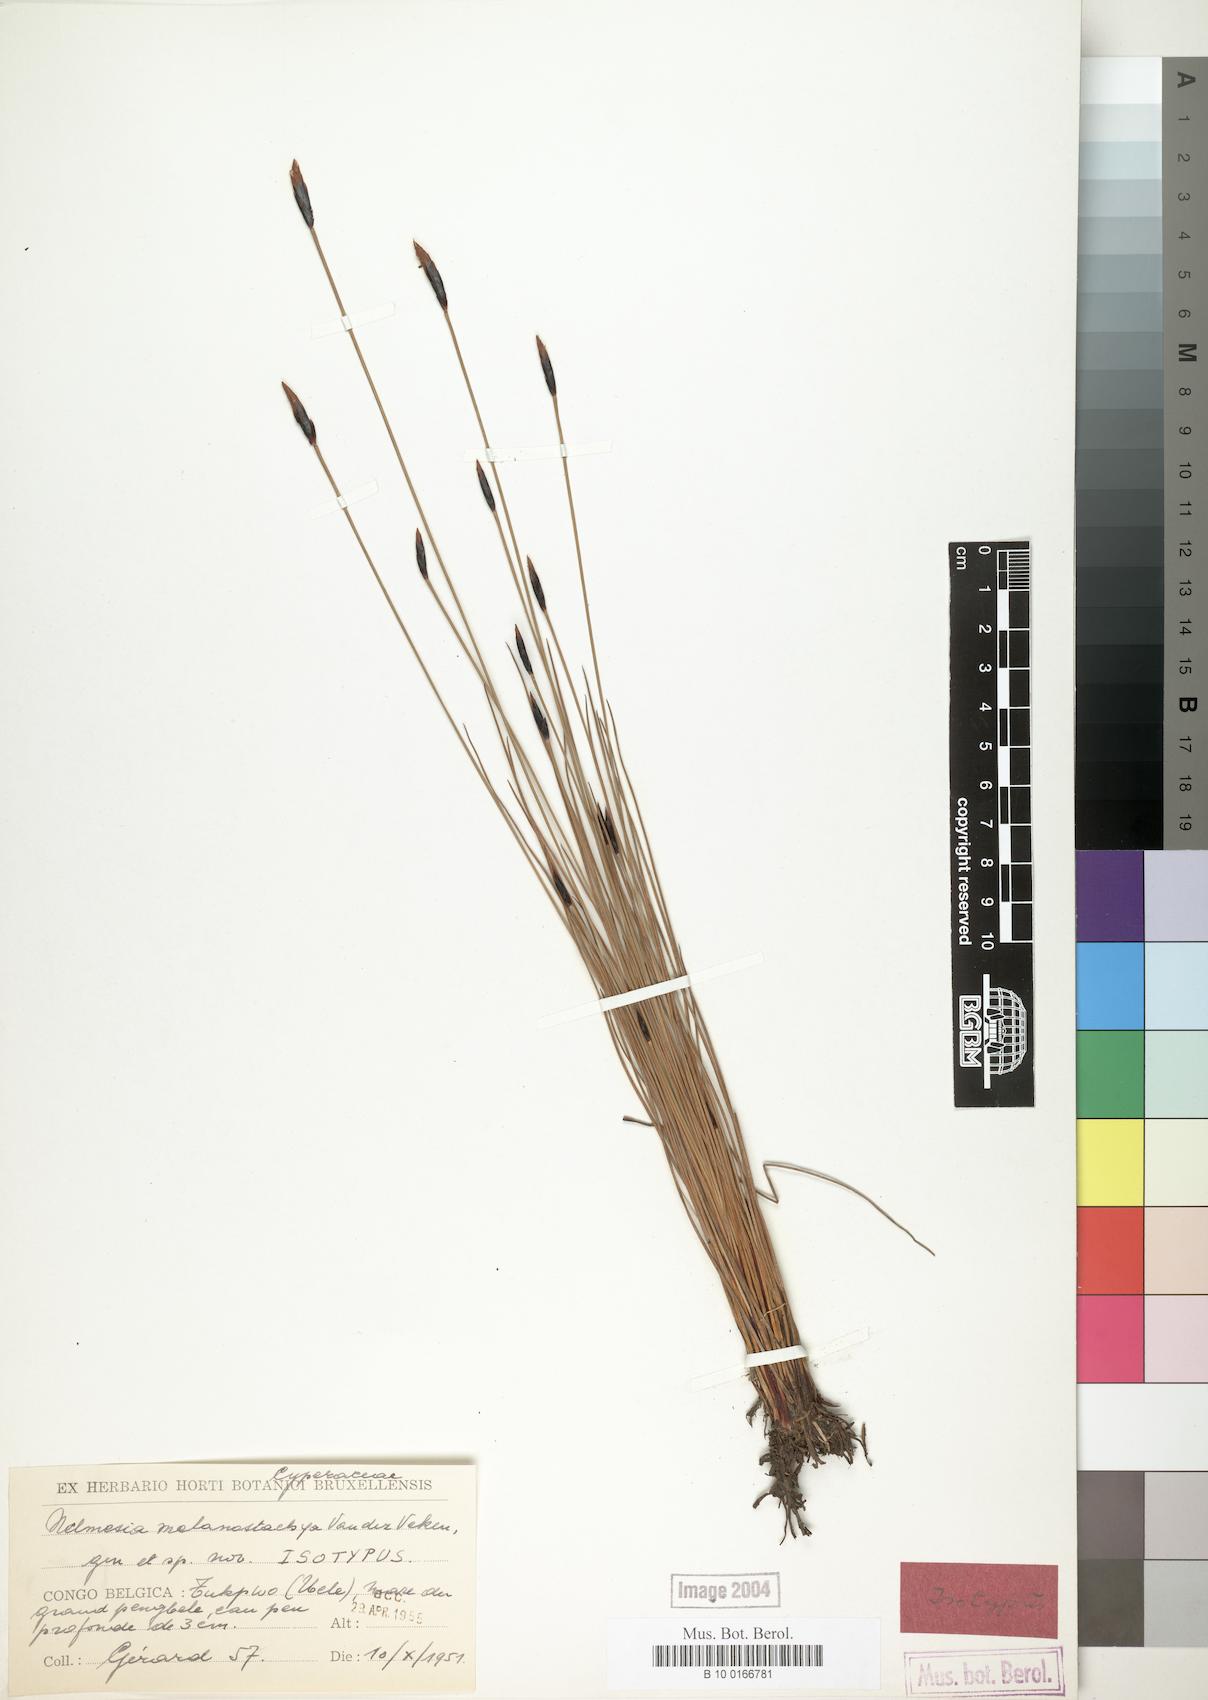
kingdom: Plantae
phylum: Tracheophyta
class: Liliopsida
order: Poales
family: Cyperaceae
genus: Nelmesia
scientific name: Nelmesia melanostachya
